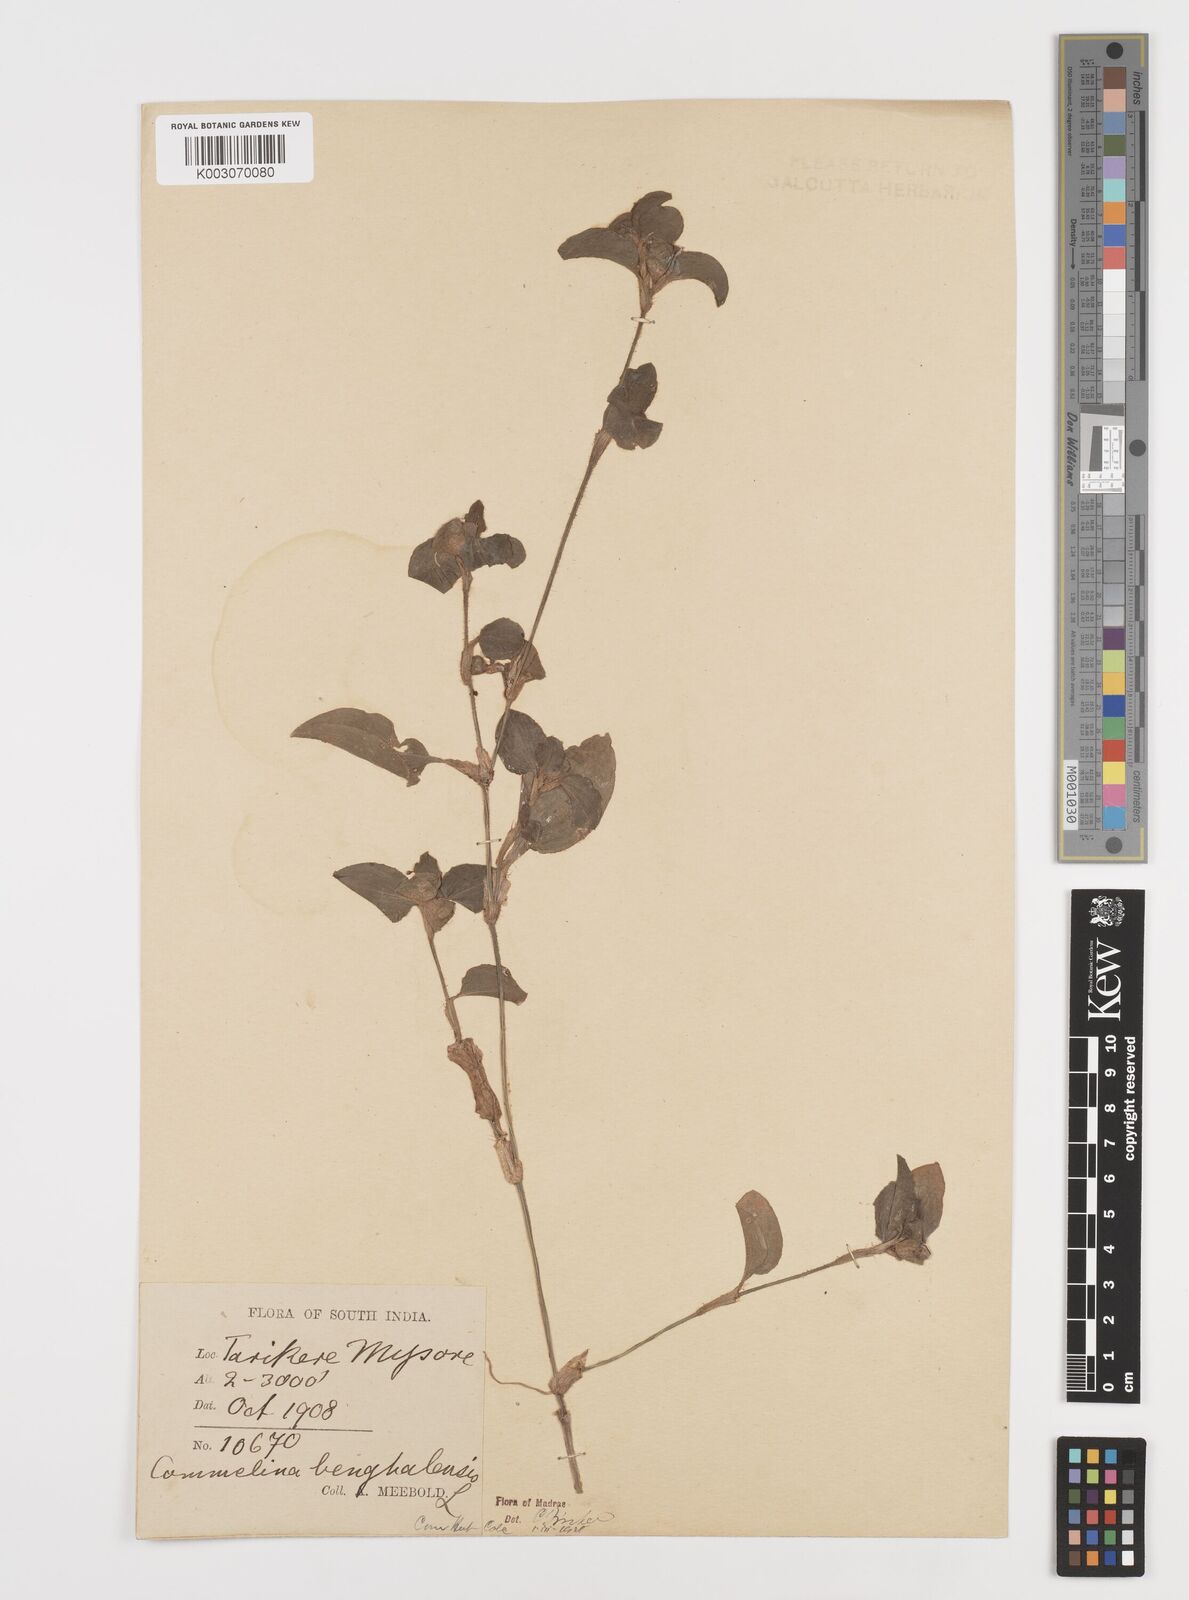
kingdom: Plantae
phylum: Tracheophyta
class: Liliopsida
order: Commelinales
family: Commelinaceae
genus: Commelina
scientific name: Commelina benghalensis
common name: Jio
